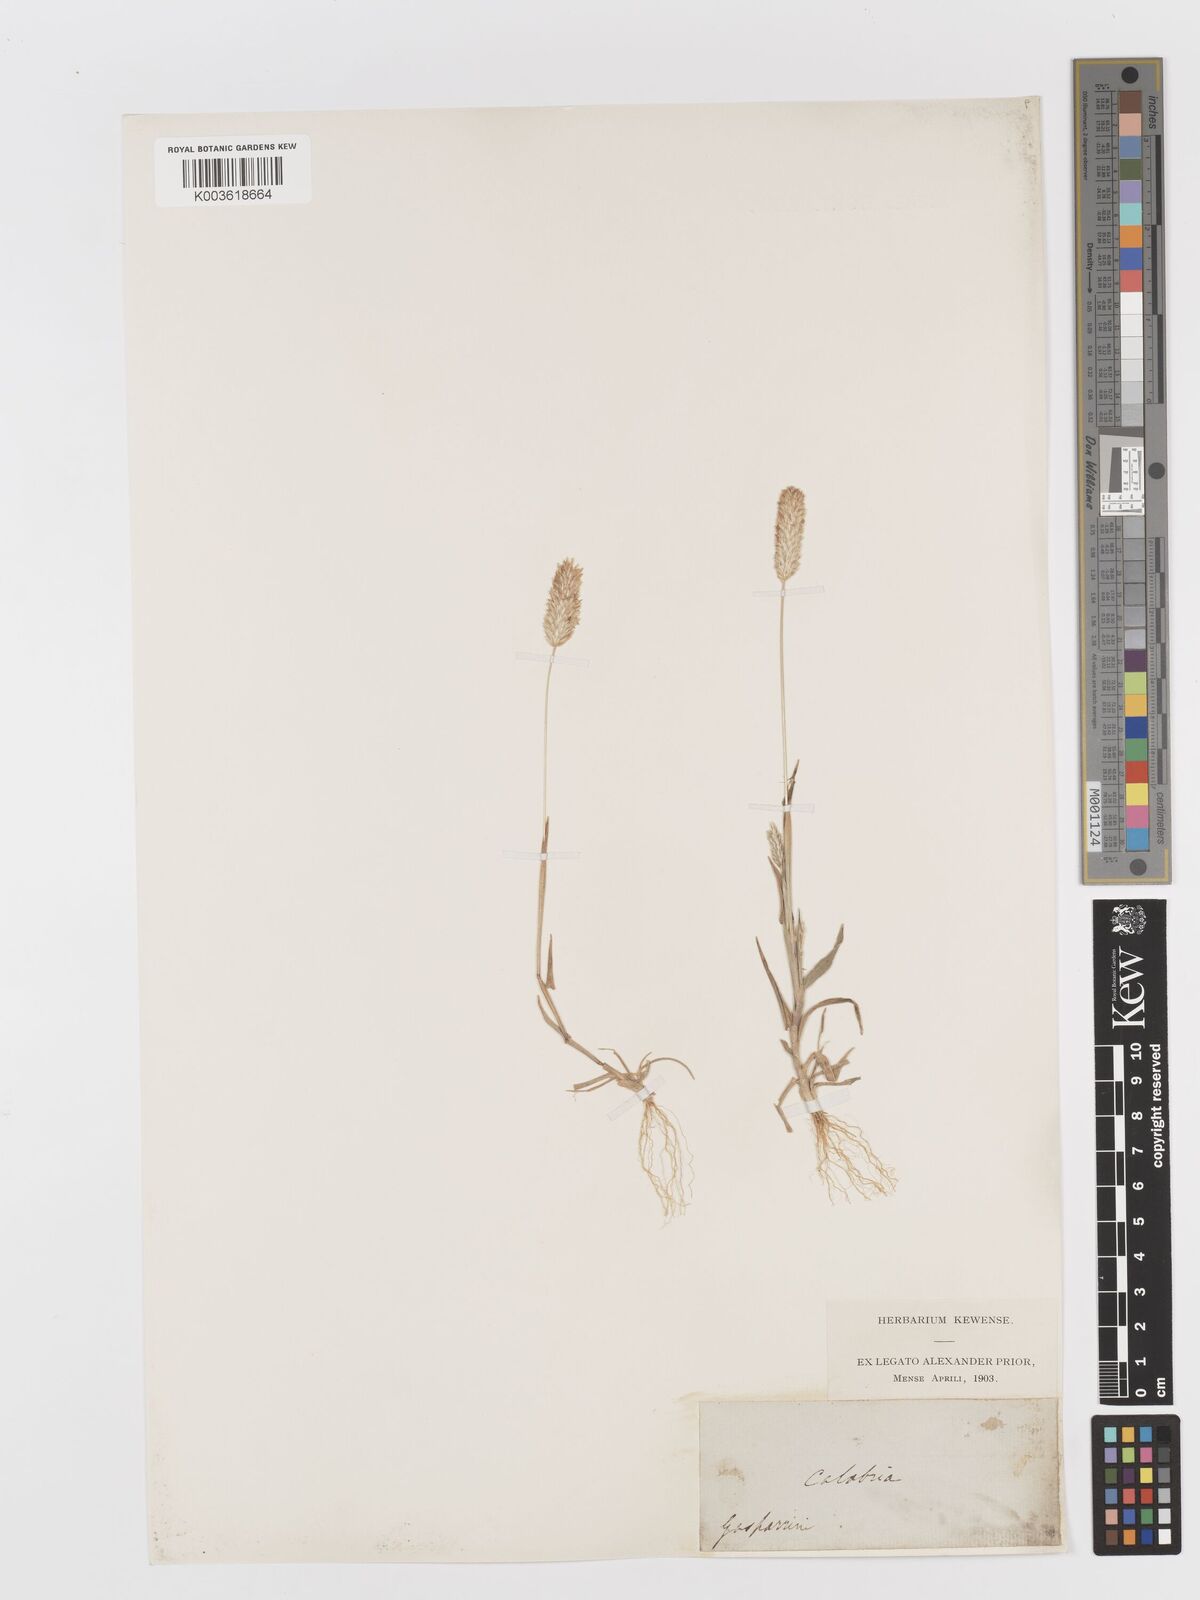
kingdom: Plantae
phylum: Tracheophyta
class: Liliopsida
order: Poales
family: Poaceae
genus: Rostraria
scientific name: Rostraria
